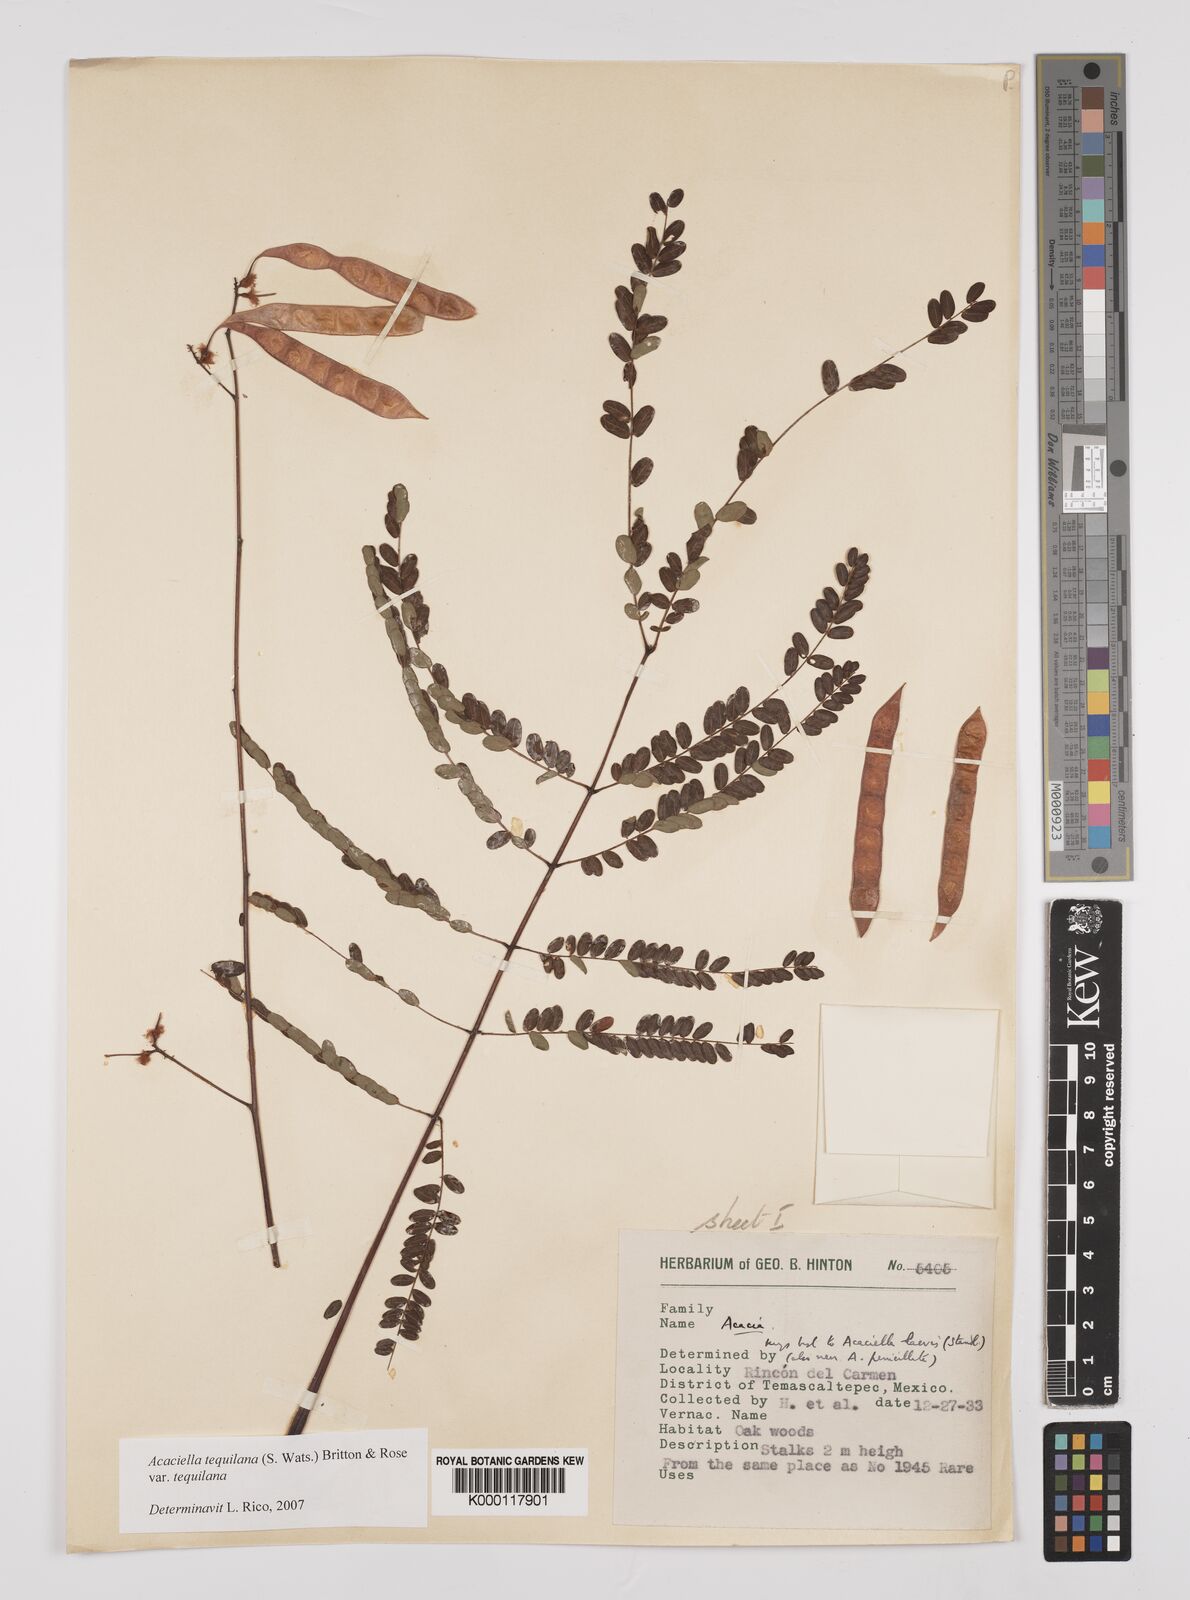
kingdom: Plantae
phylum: Tracheophyta
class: Magnoliopsida
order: Fabales
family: Fabaceae
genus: Acaciella
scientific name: Acaciella tequilana
